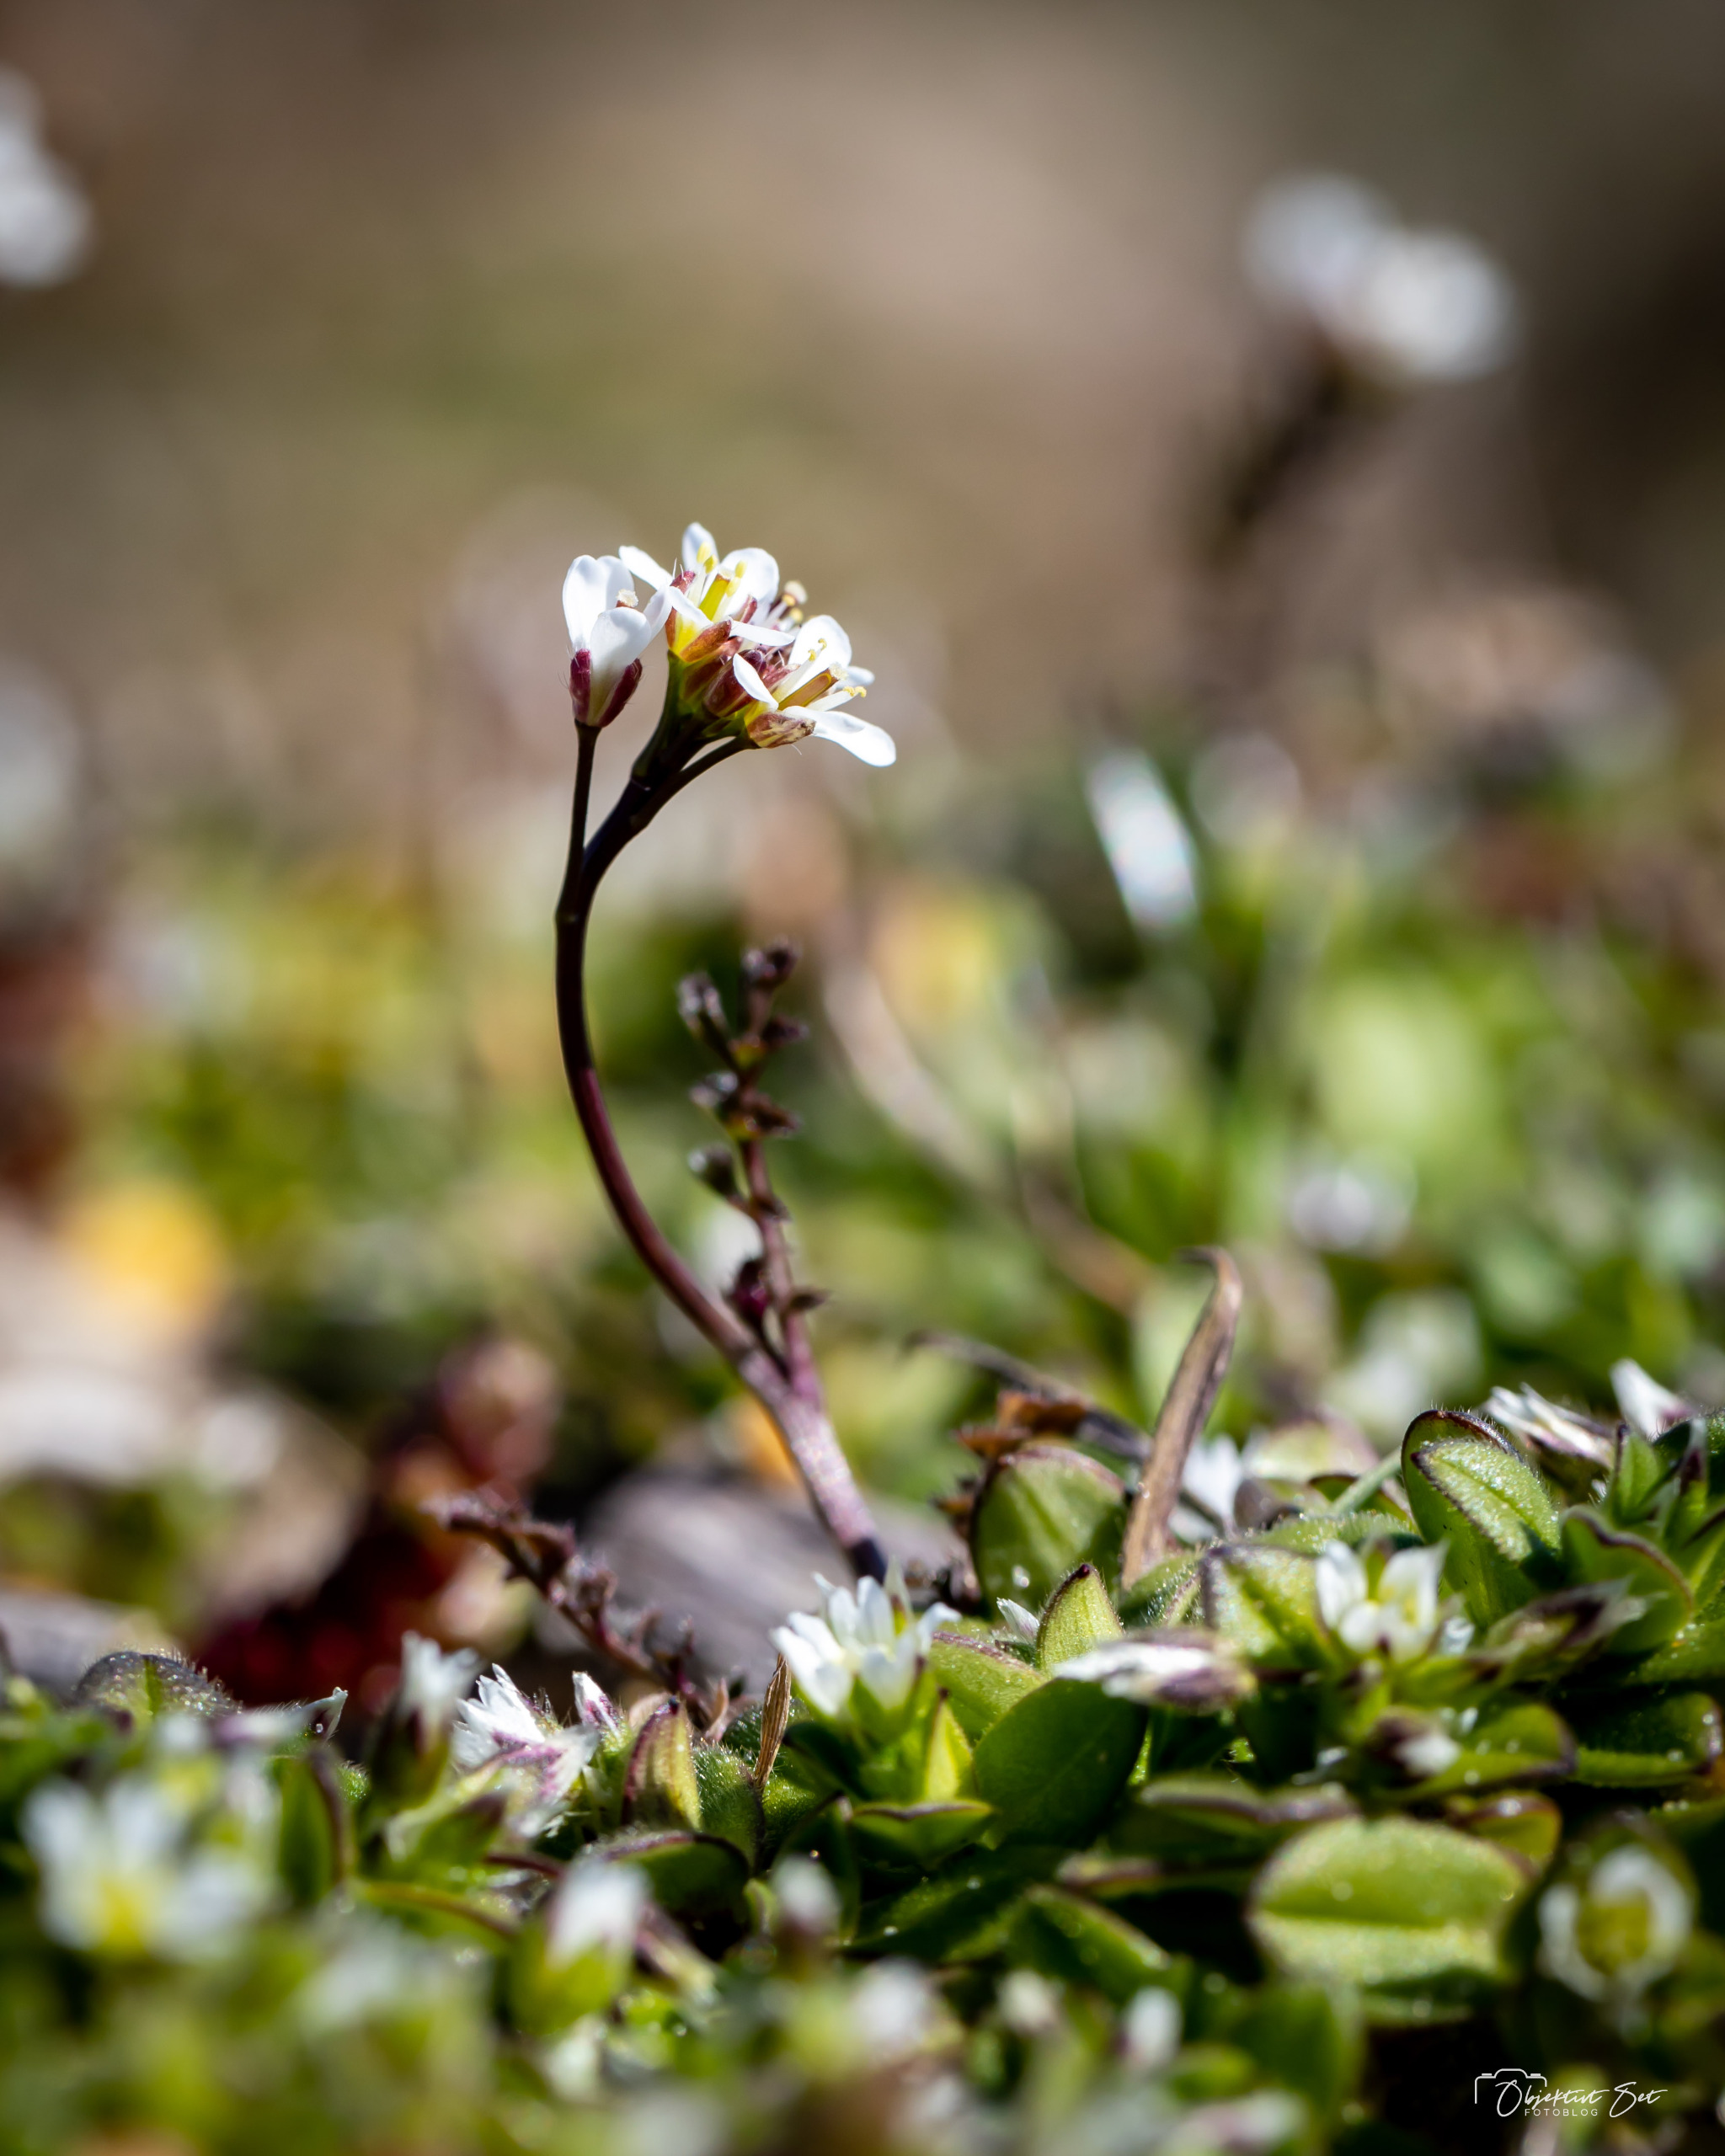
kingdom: Plantae
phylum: Tracheophyta
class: Magnoliopsida
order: Brassicales
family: Brassicaceae
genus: Cardamine
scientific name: Cardamine hirsuta
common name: Roset-springklap
